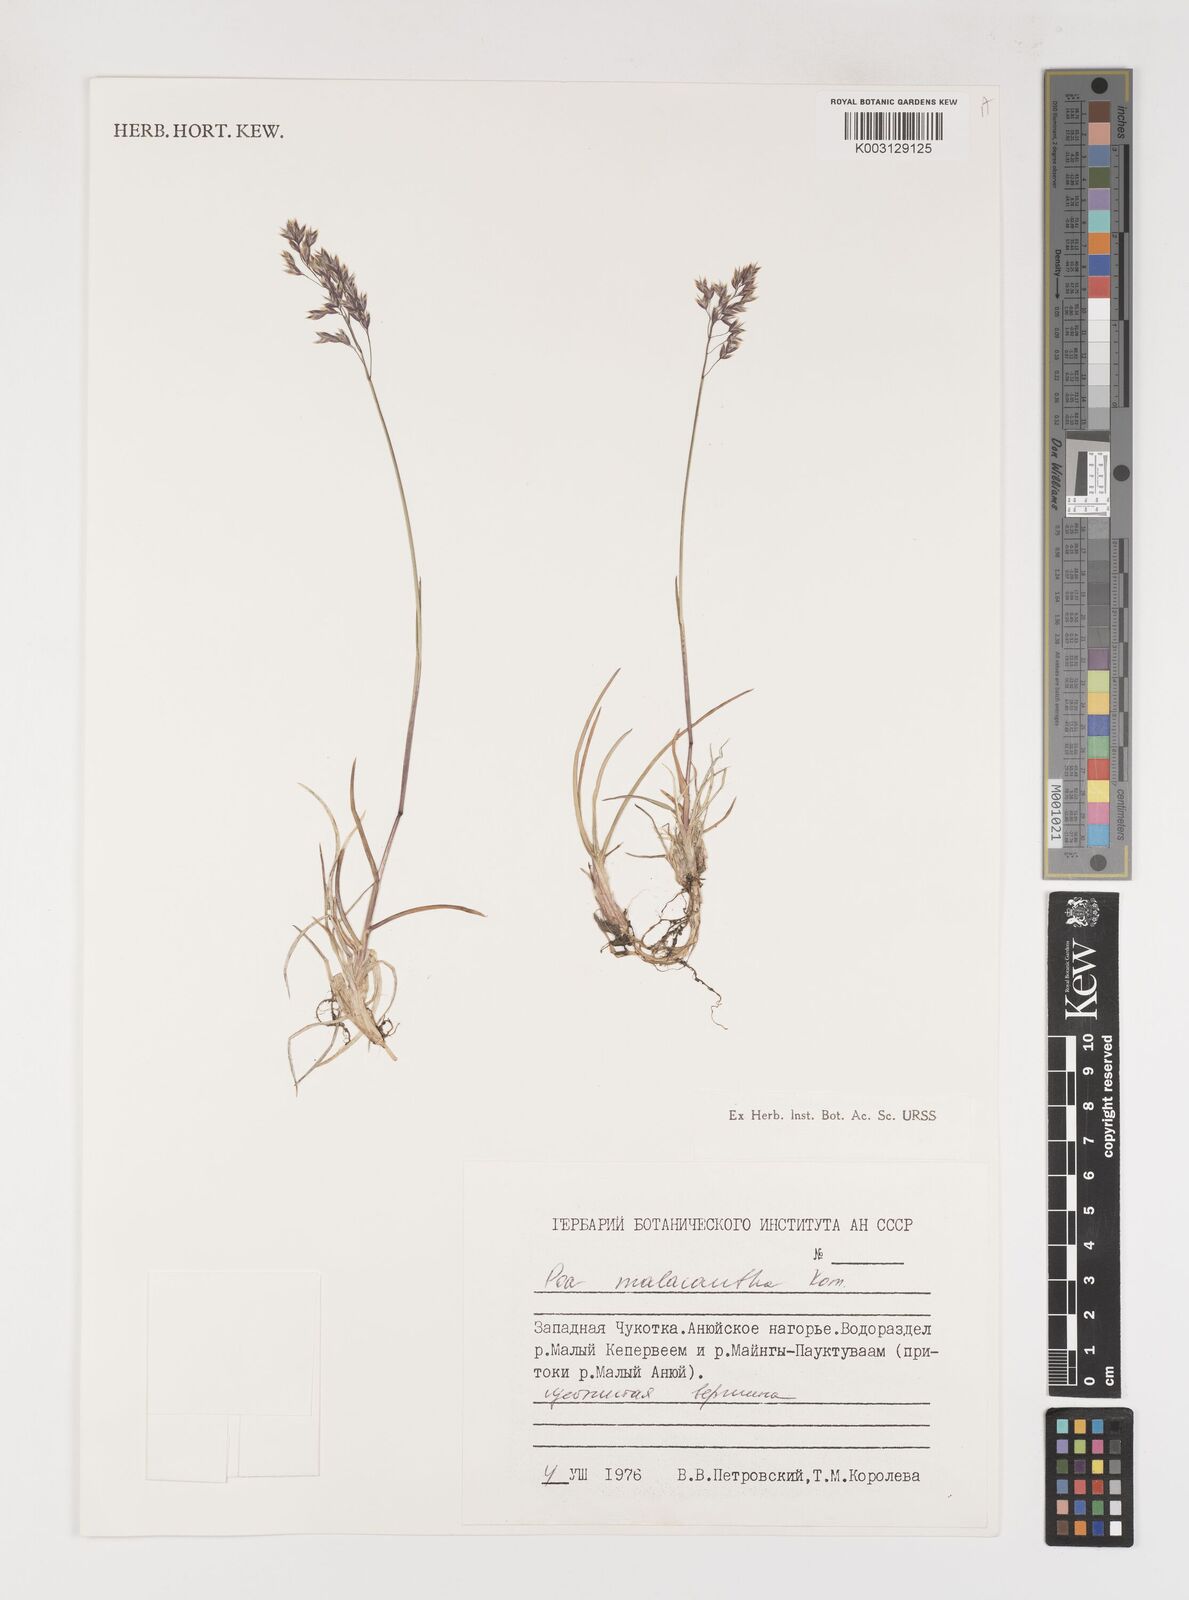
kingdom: Plantae
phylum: Tracheophyta
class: Liliopsida
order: Poales
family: Poaceae
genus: Poa
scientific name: Poa arctica
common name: Arctic bluegrass
